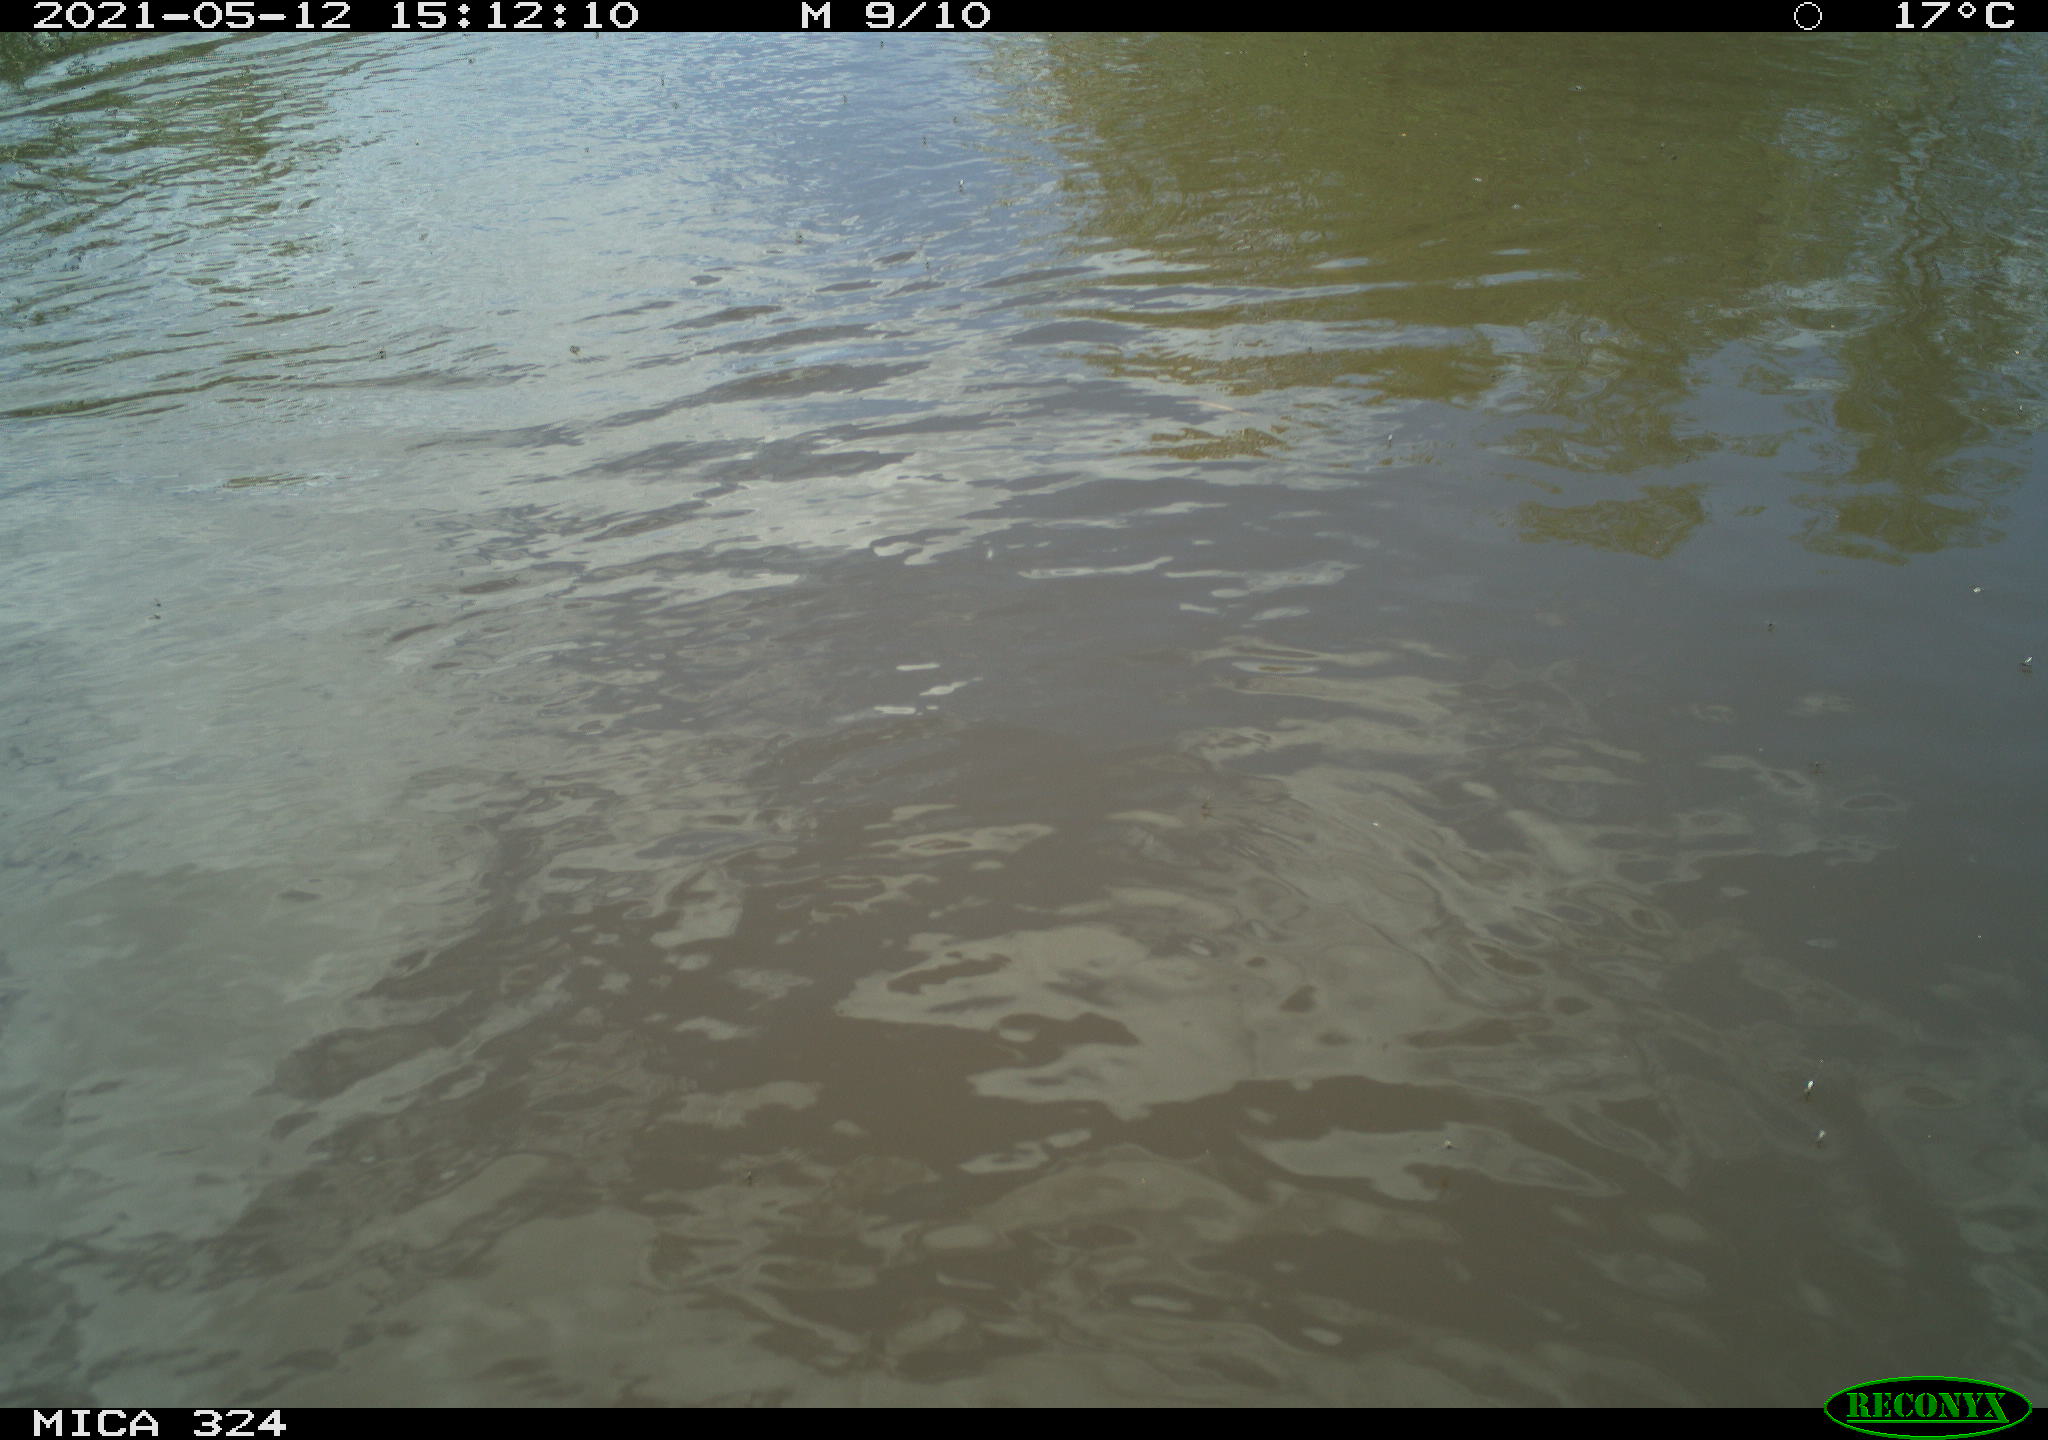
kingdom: Animalia
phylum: Chordata
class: Aves
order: Gruiformes
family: Rallidae
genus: Gallinula
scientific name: Gallinula chloropus
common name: Common moorhen
